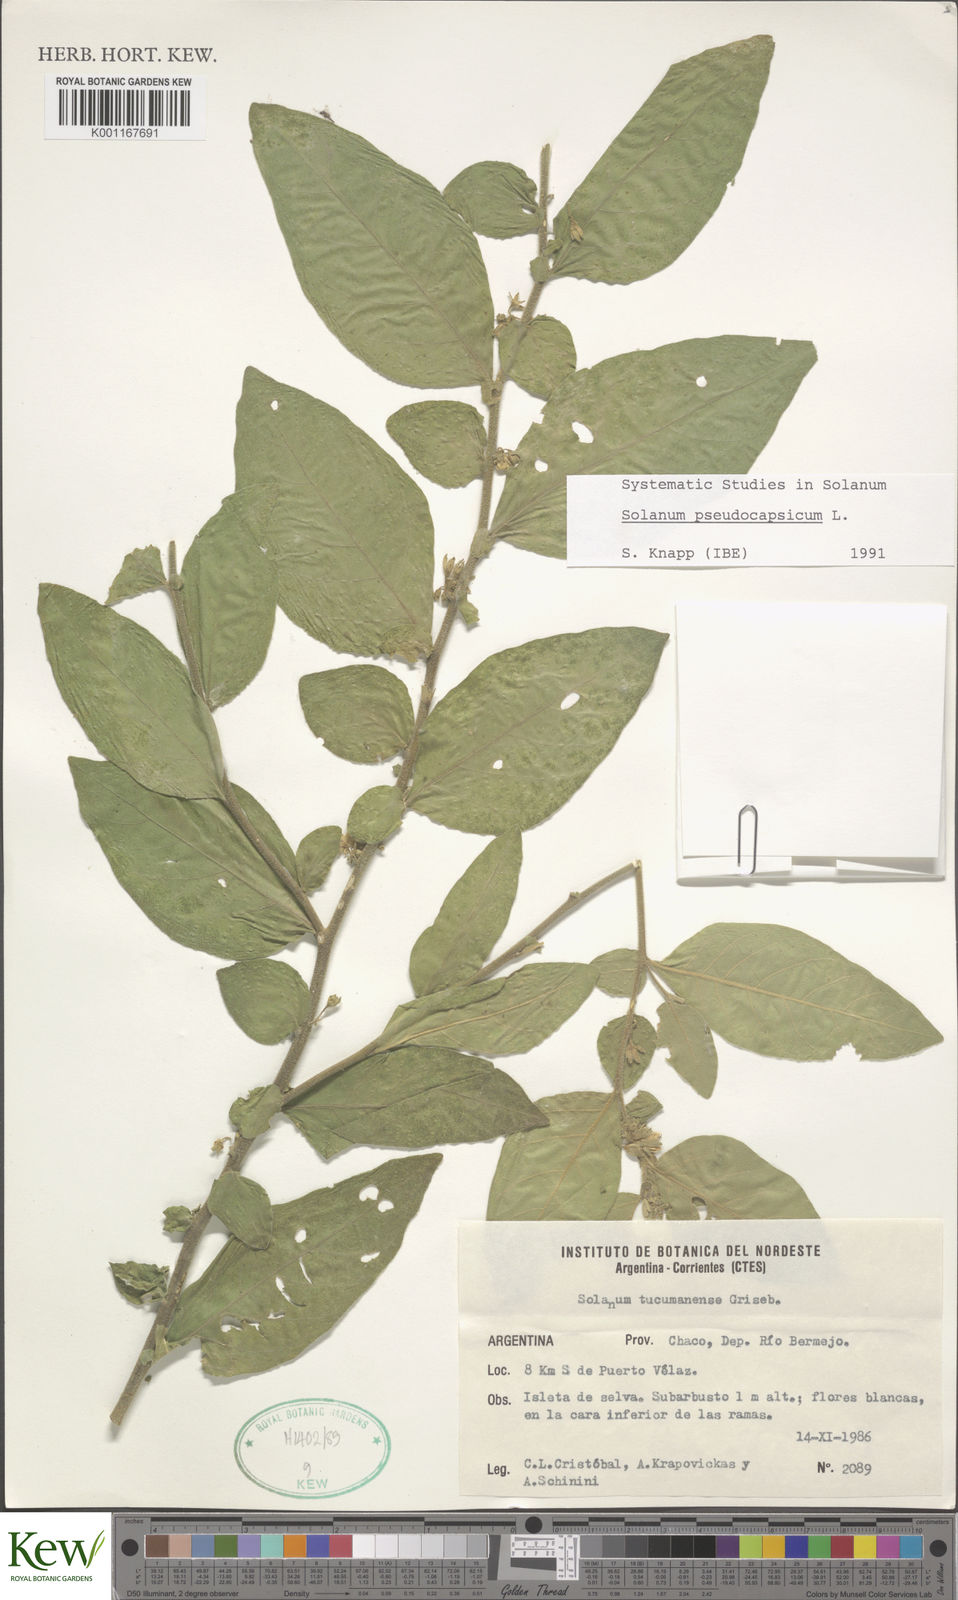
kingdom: Plantae
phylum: Tracheophyta
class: Magnoliopsida
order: Solanales
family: Solanaceae
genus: Solanum
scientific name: Solanum pseudocapsicum
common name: Jerusalem cherry
